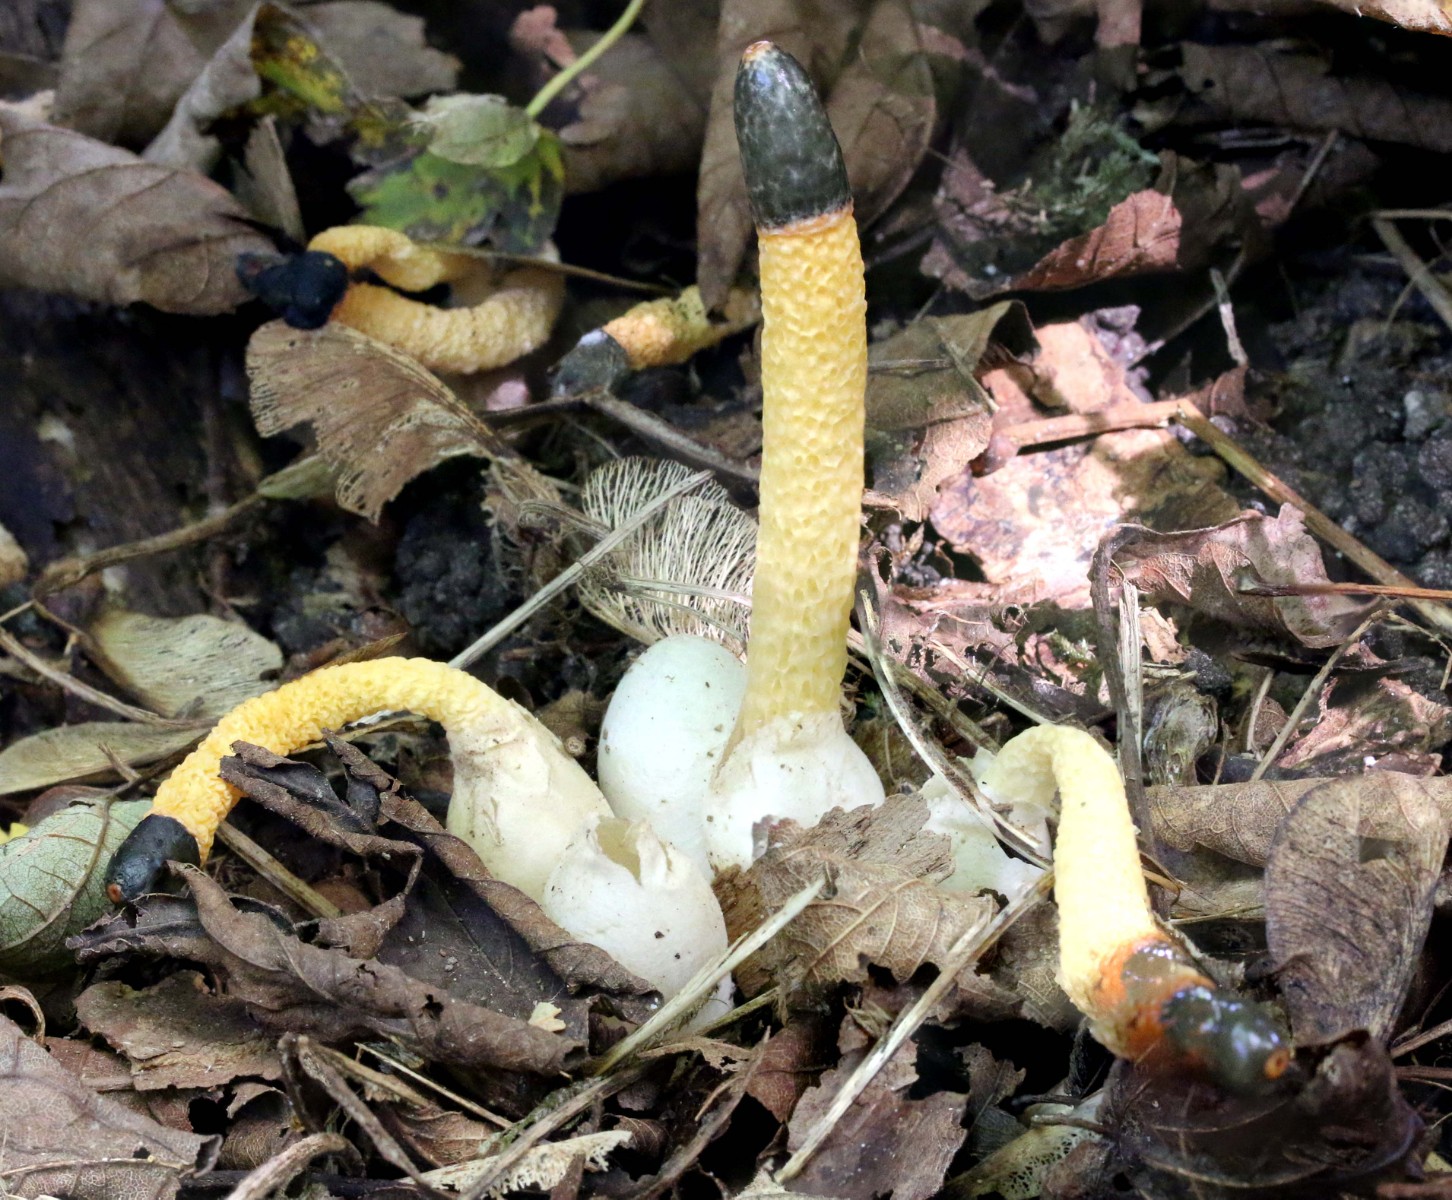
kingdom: Fungi
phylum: Basidiomycota
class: Agaricomycetes
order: Phallales
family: Phallaceae
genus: Mutinus
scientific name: Mutinus caninus
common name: hunde-stinksvamp
